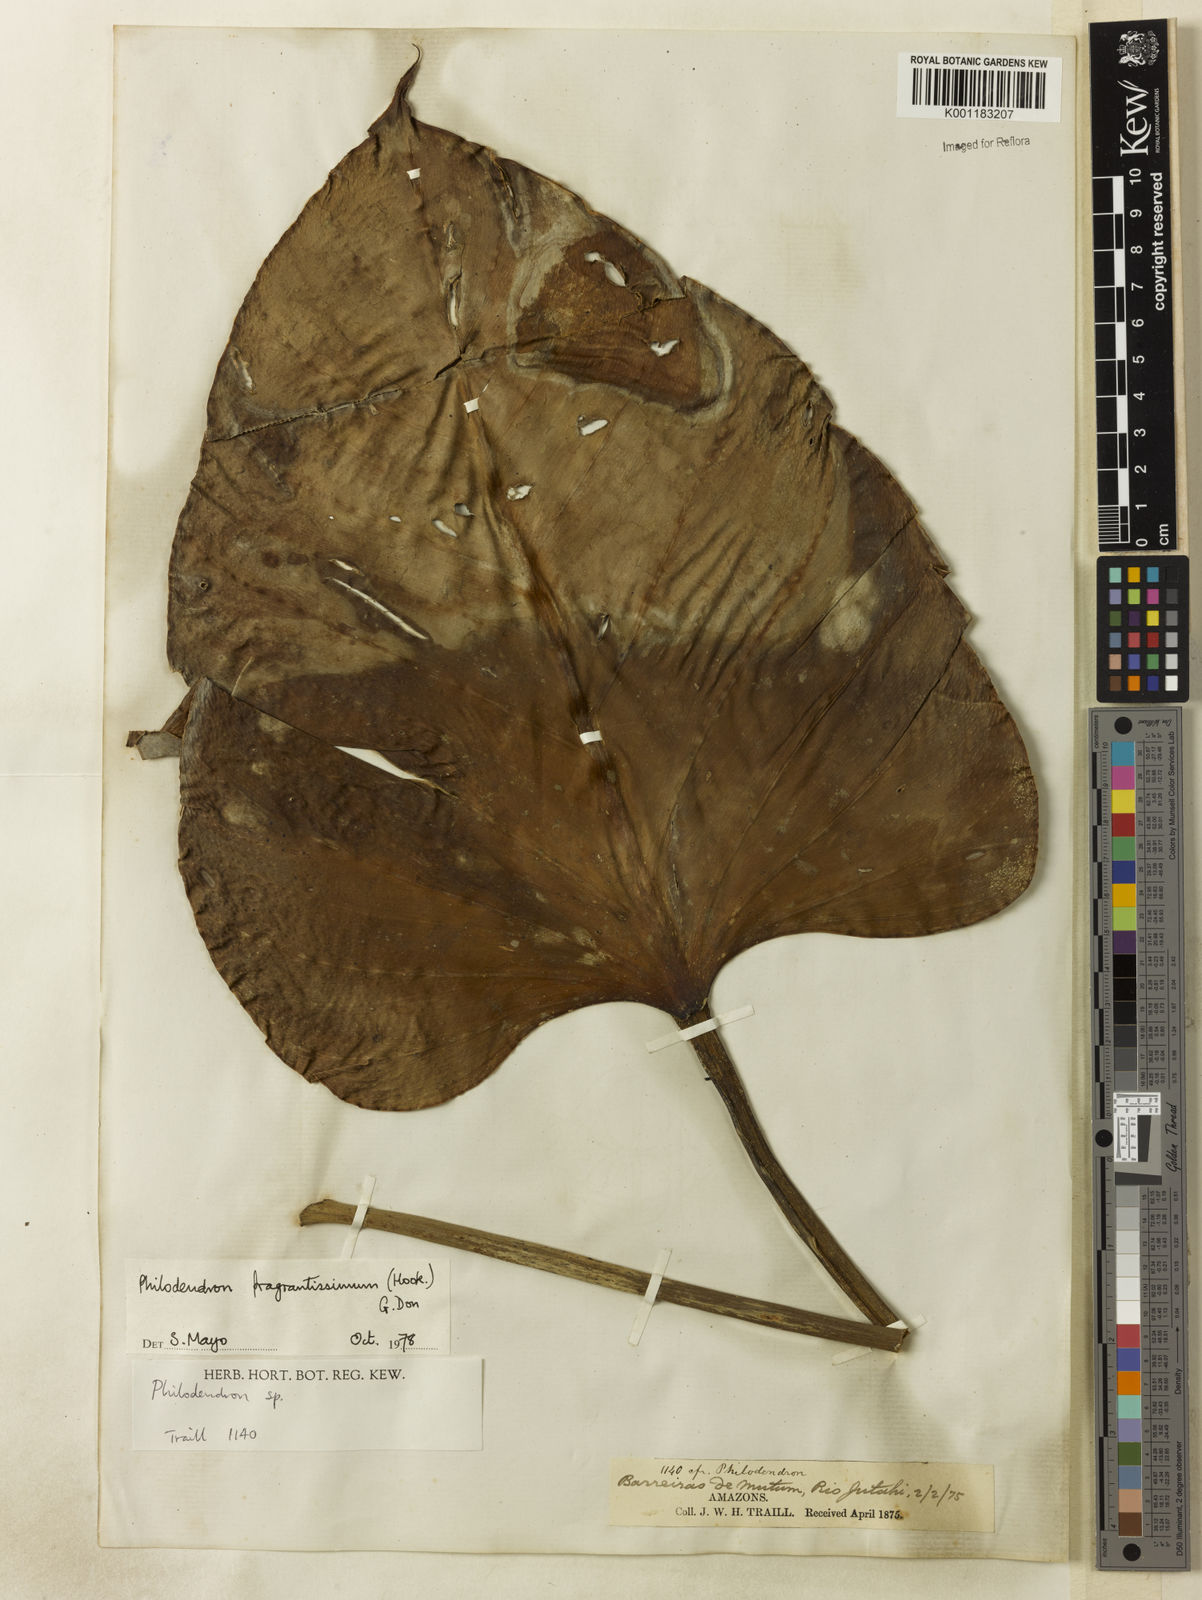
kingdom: Plantae
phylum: Tracheophyta
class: Liliopsida
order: Alismatales
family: Araceae
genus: Philodendron
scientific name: Philodendron
